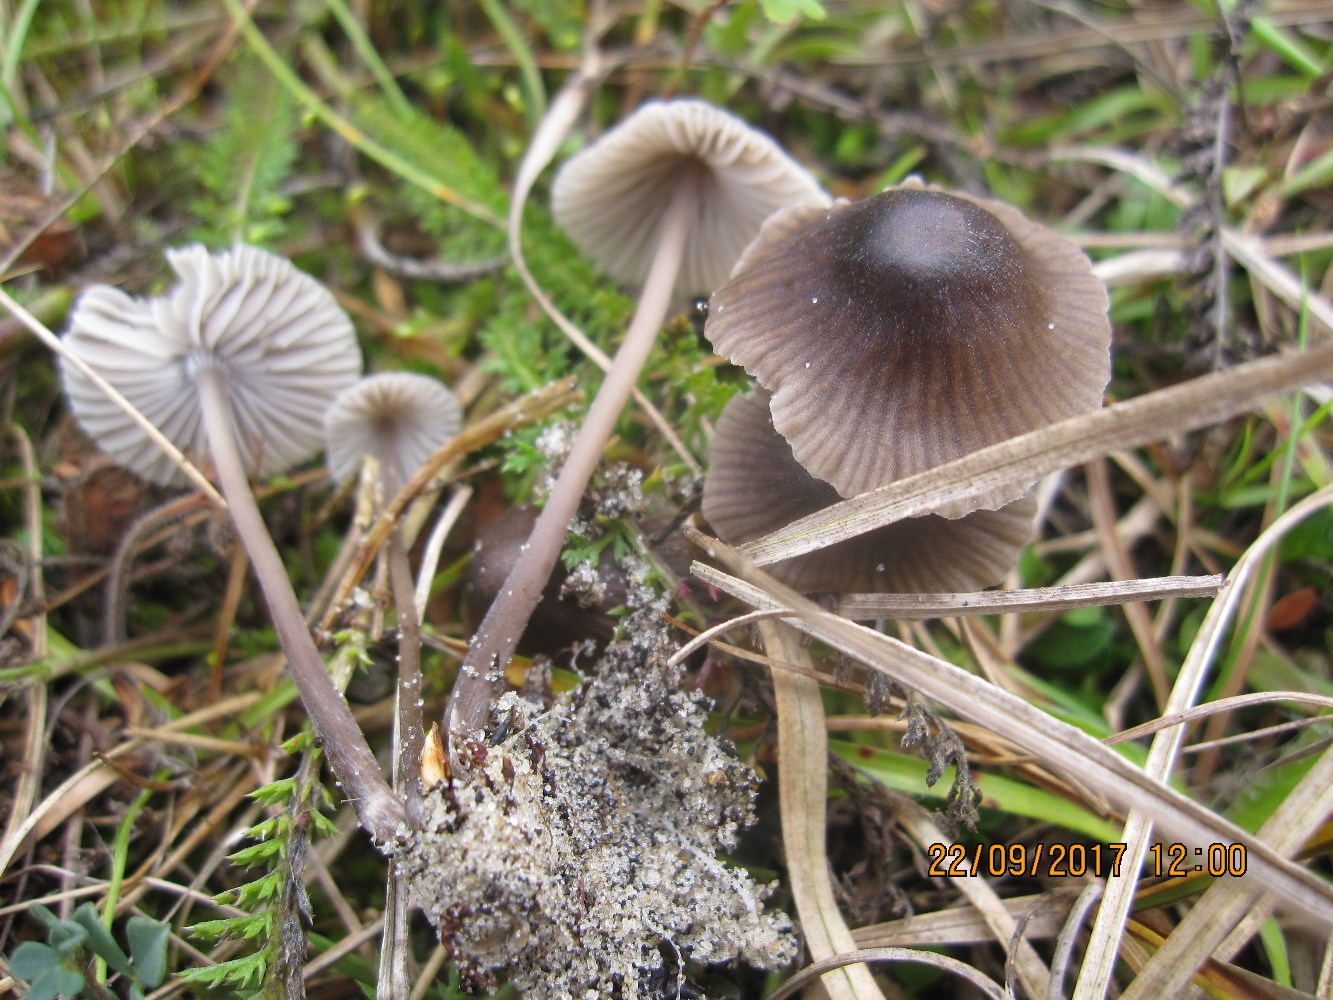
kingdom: Fungi
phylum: Basidiomycota
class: Agaricomycetes
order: Agaricales
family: Mycenaceae
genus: Mycena
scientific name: Mycena leptocephala
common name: klor-huesvamp
